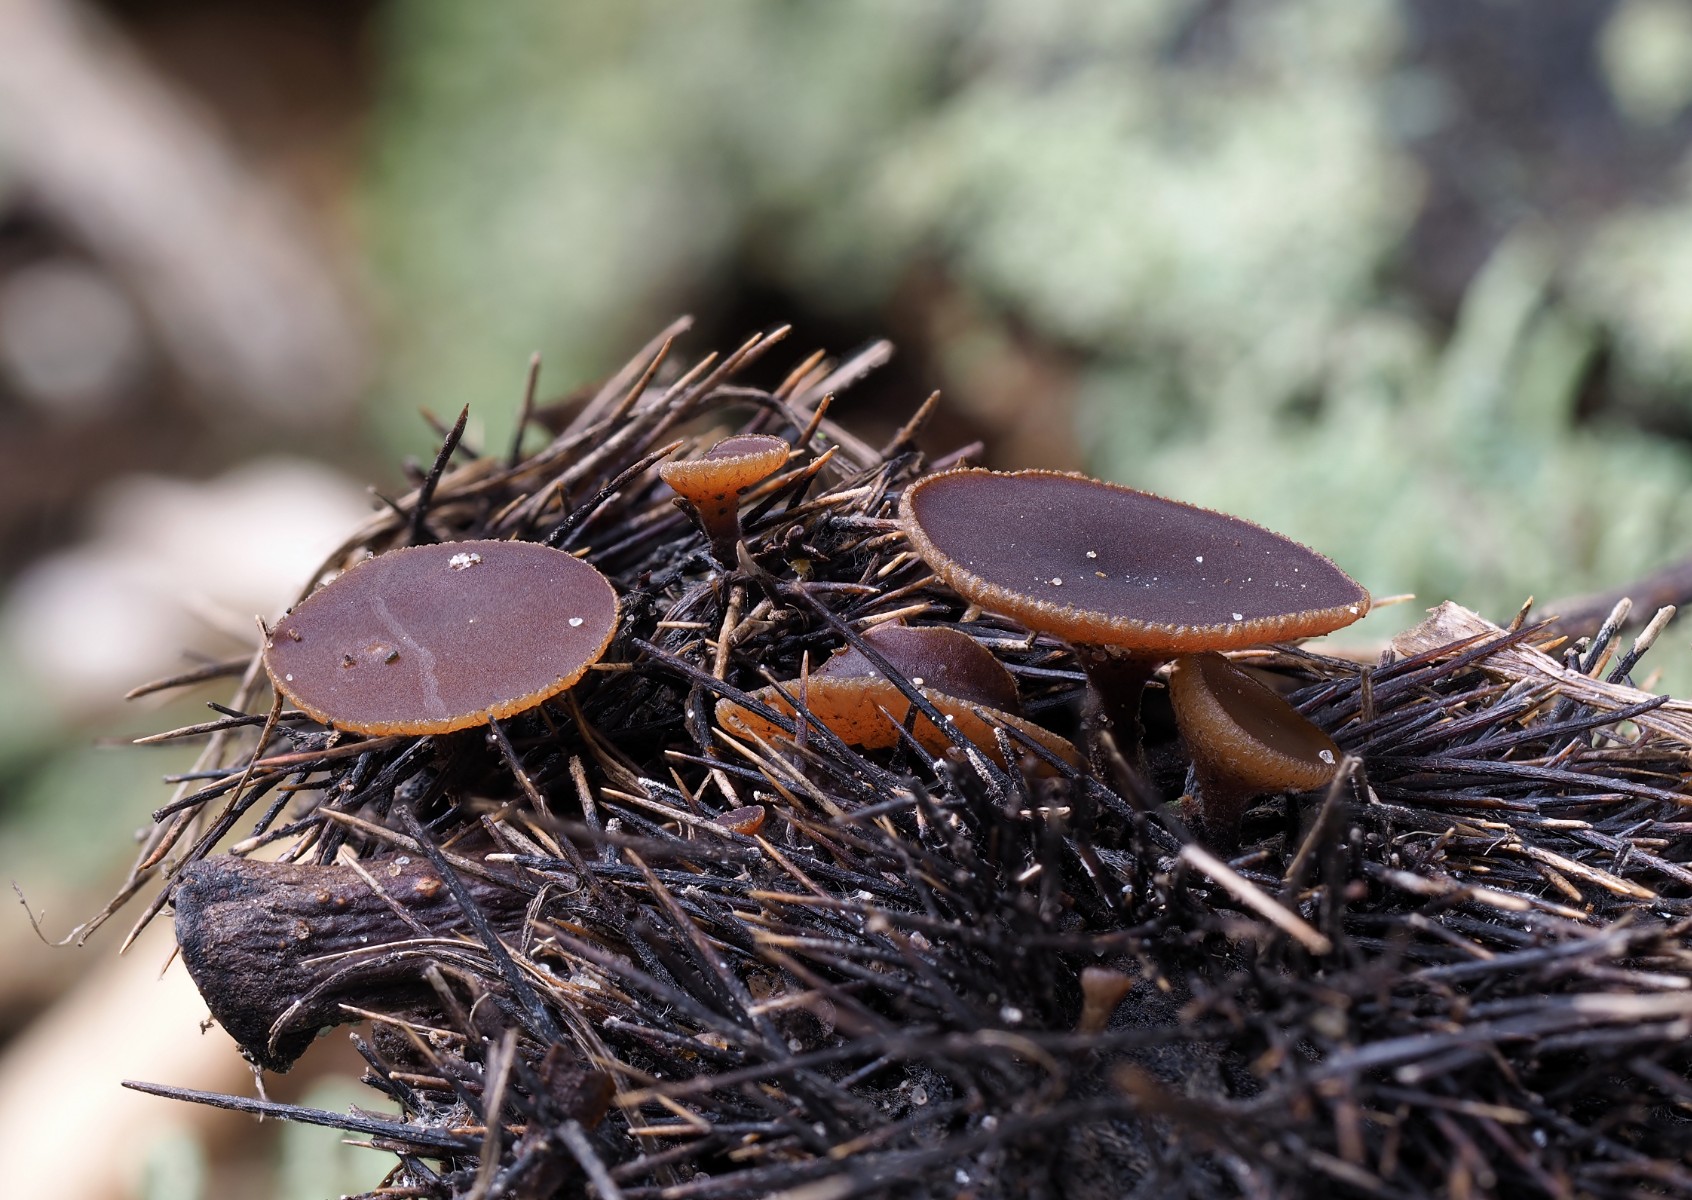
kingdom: Fungi
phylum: Ascomycota
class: Leotiomycetes
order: Helotiales
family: Rutstroemiaceae
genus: Lanzia
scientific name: Lanzia echinophila
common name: kastanie-brunskive
